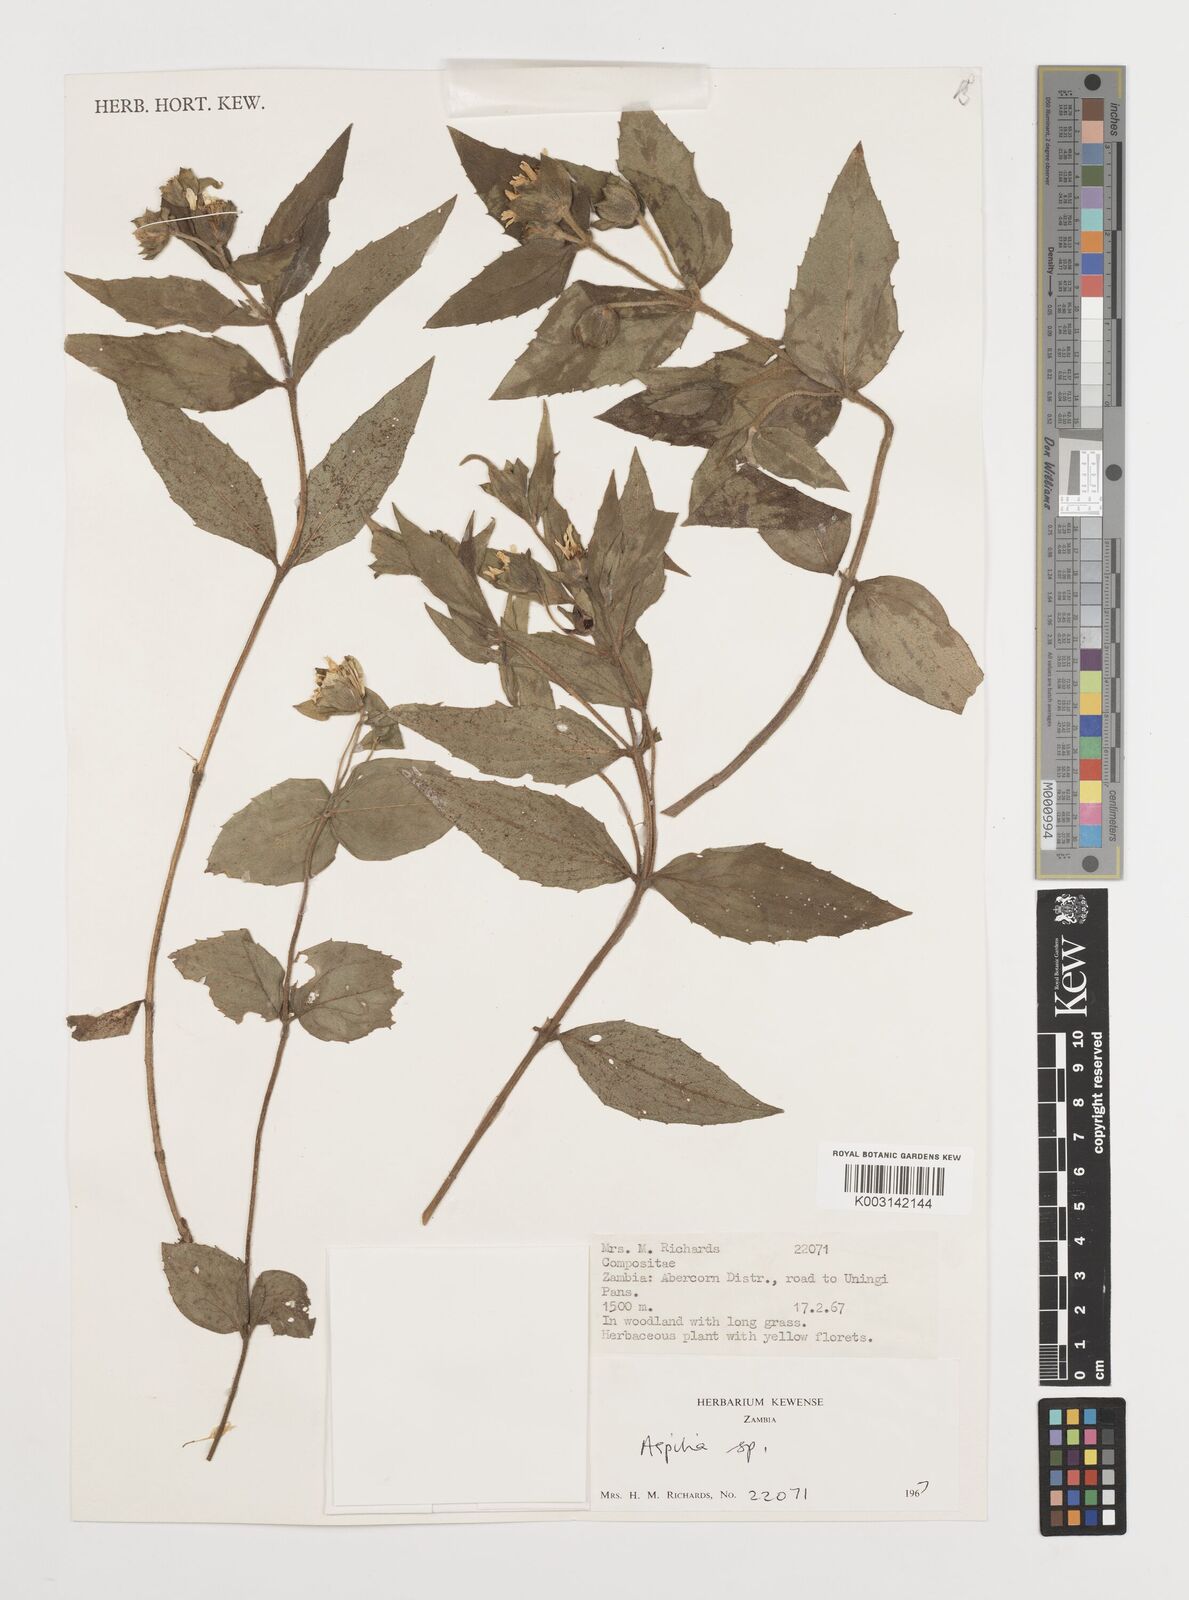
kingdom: Plantae
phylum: Tracheophyta
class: Magnoliopsida
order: Asterales
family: Asteraceae
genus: Aspilia
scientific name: Aspilia natalensis
